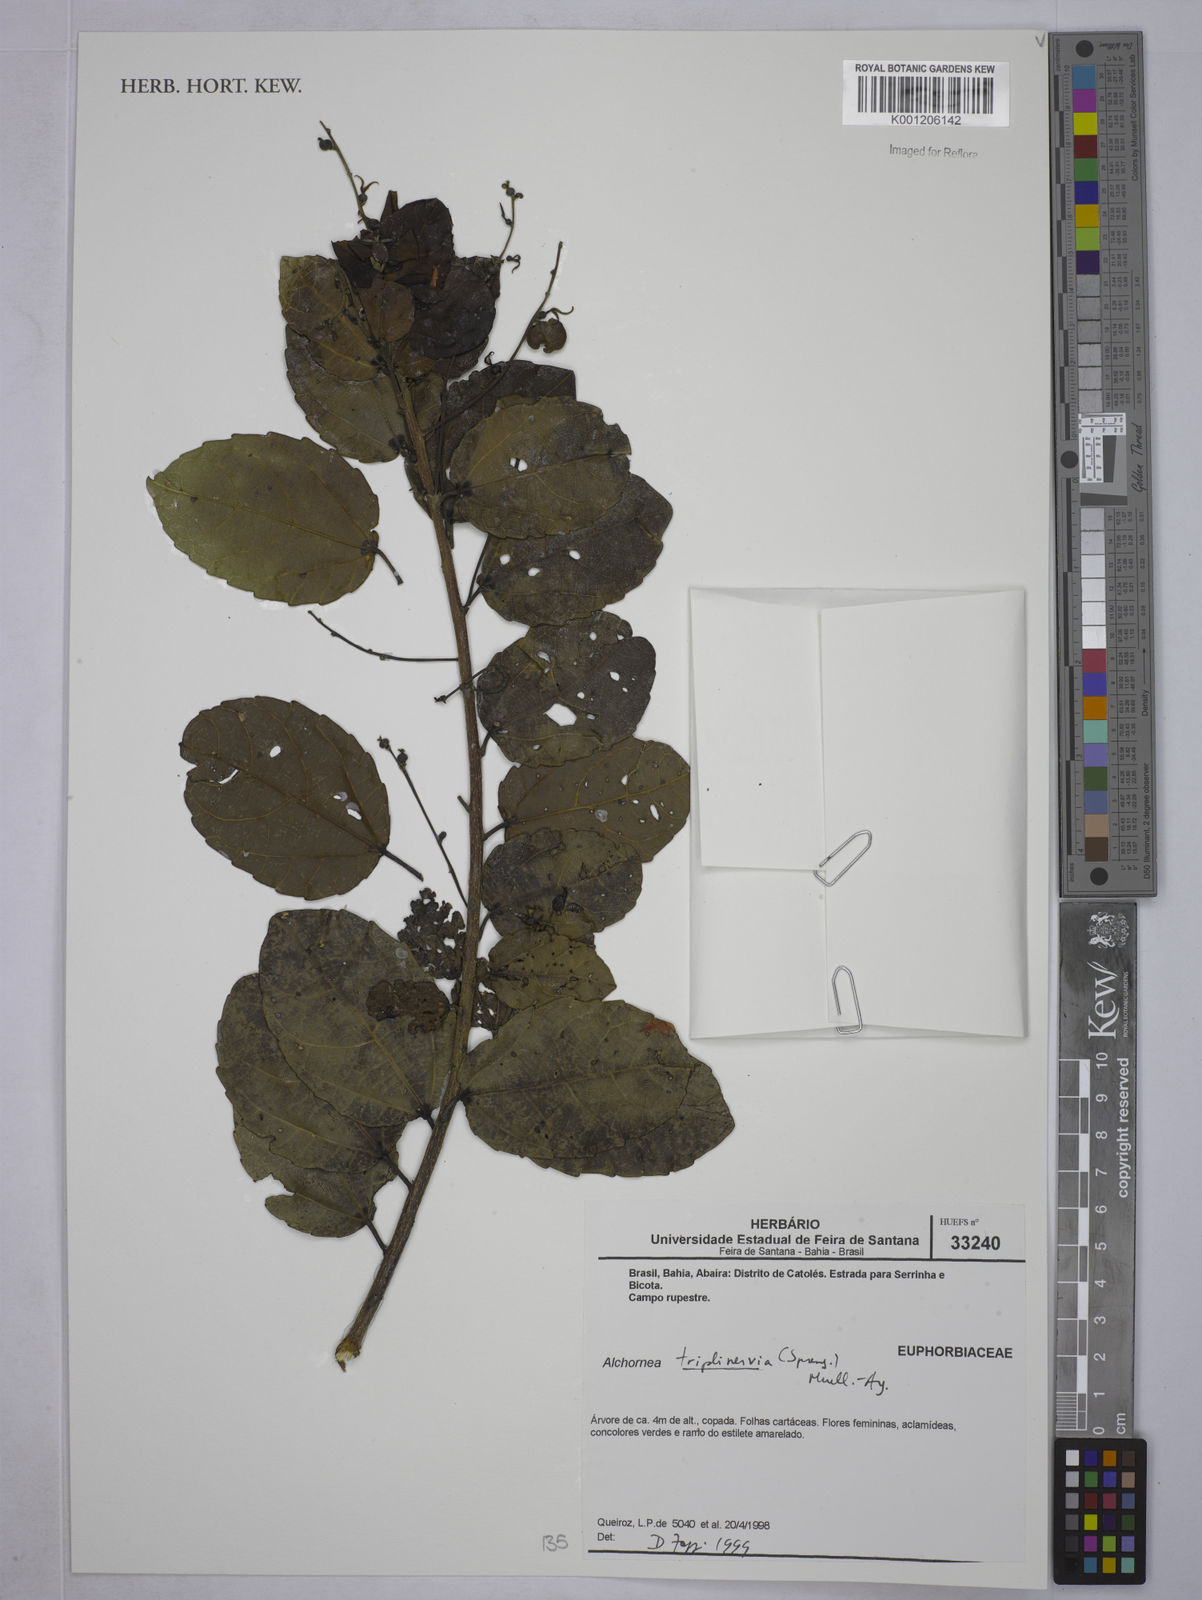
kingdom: Plantae
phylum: Tracheophyta
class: Magnoliopsida
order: Malpighiales
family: Euphorbiaceae
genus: Alchornea
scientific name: Alchornea
